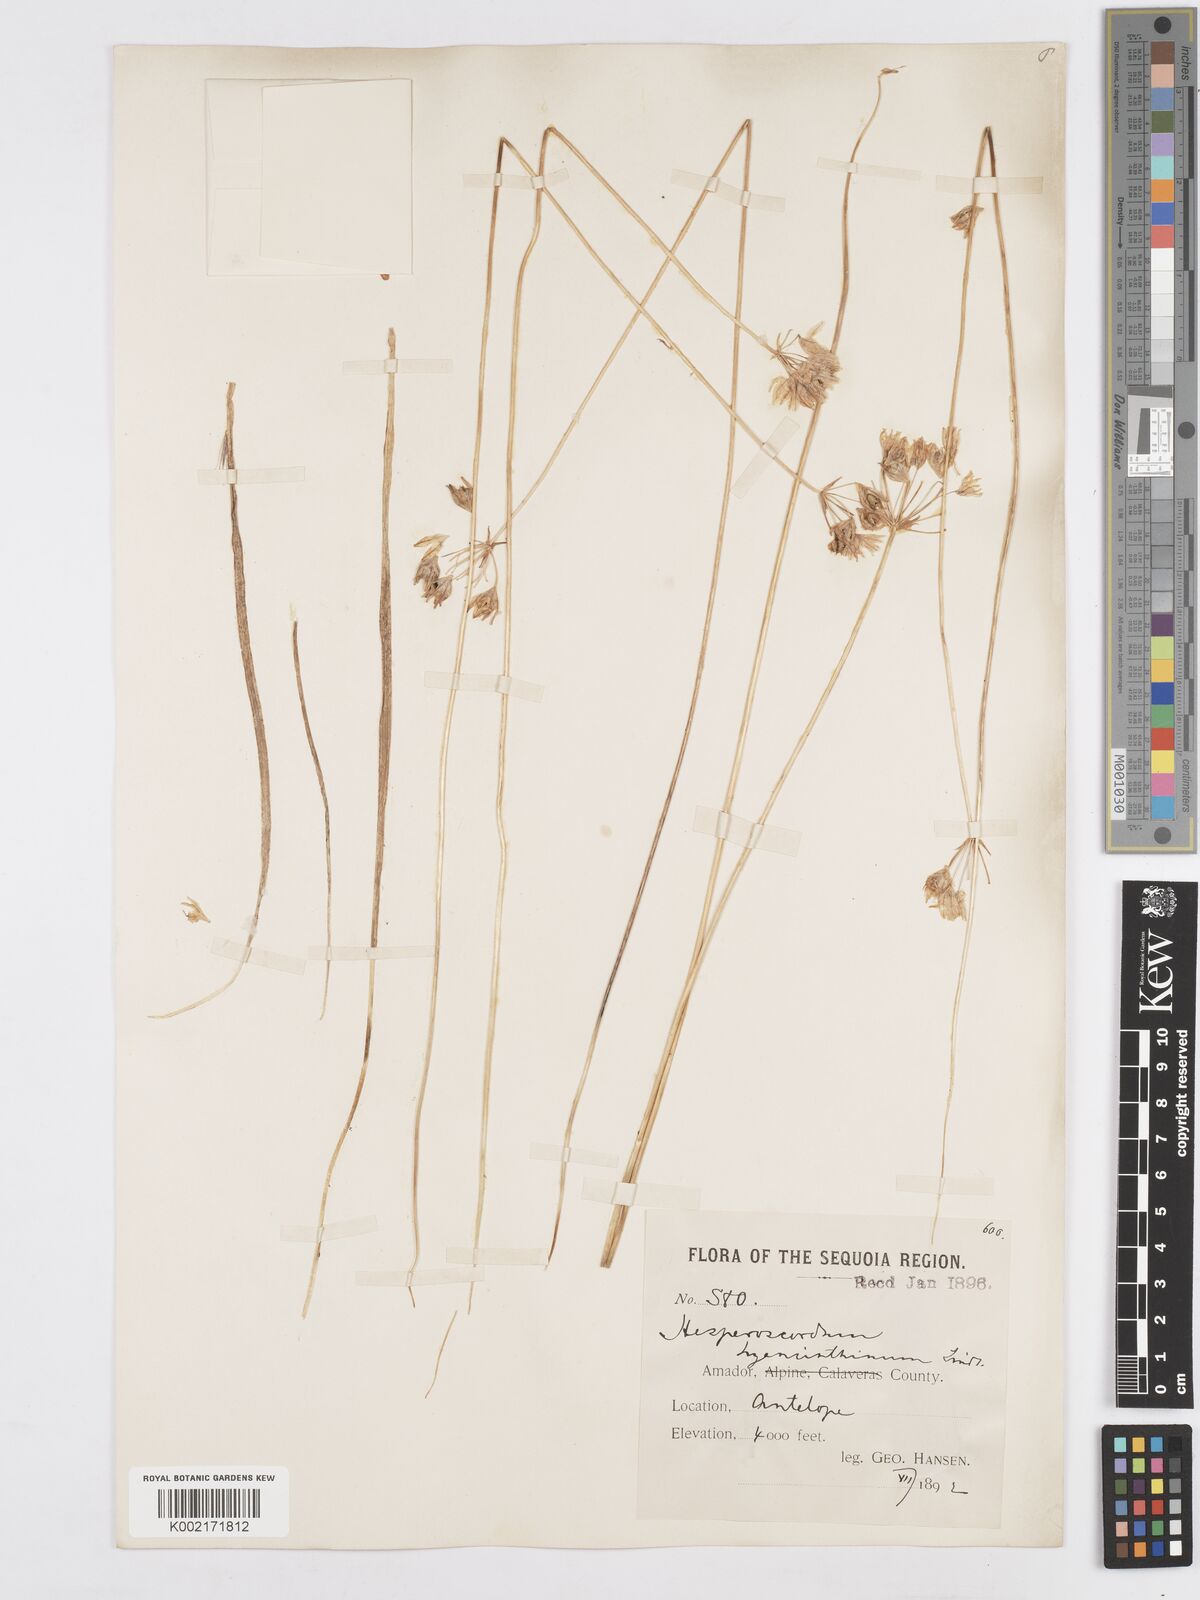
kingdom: Plantae
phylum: Tracheophyta
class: Liliopsida
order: Asparagales
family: Asparagaceae
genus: Triteleia
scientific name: Triteleia hyacinthina
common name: White brodiaea
